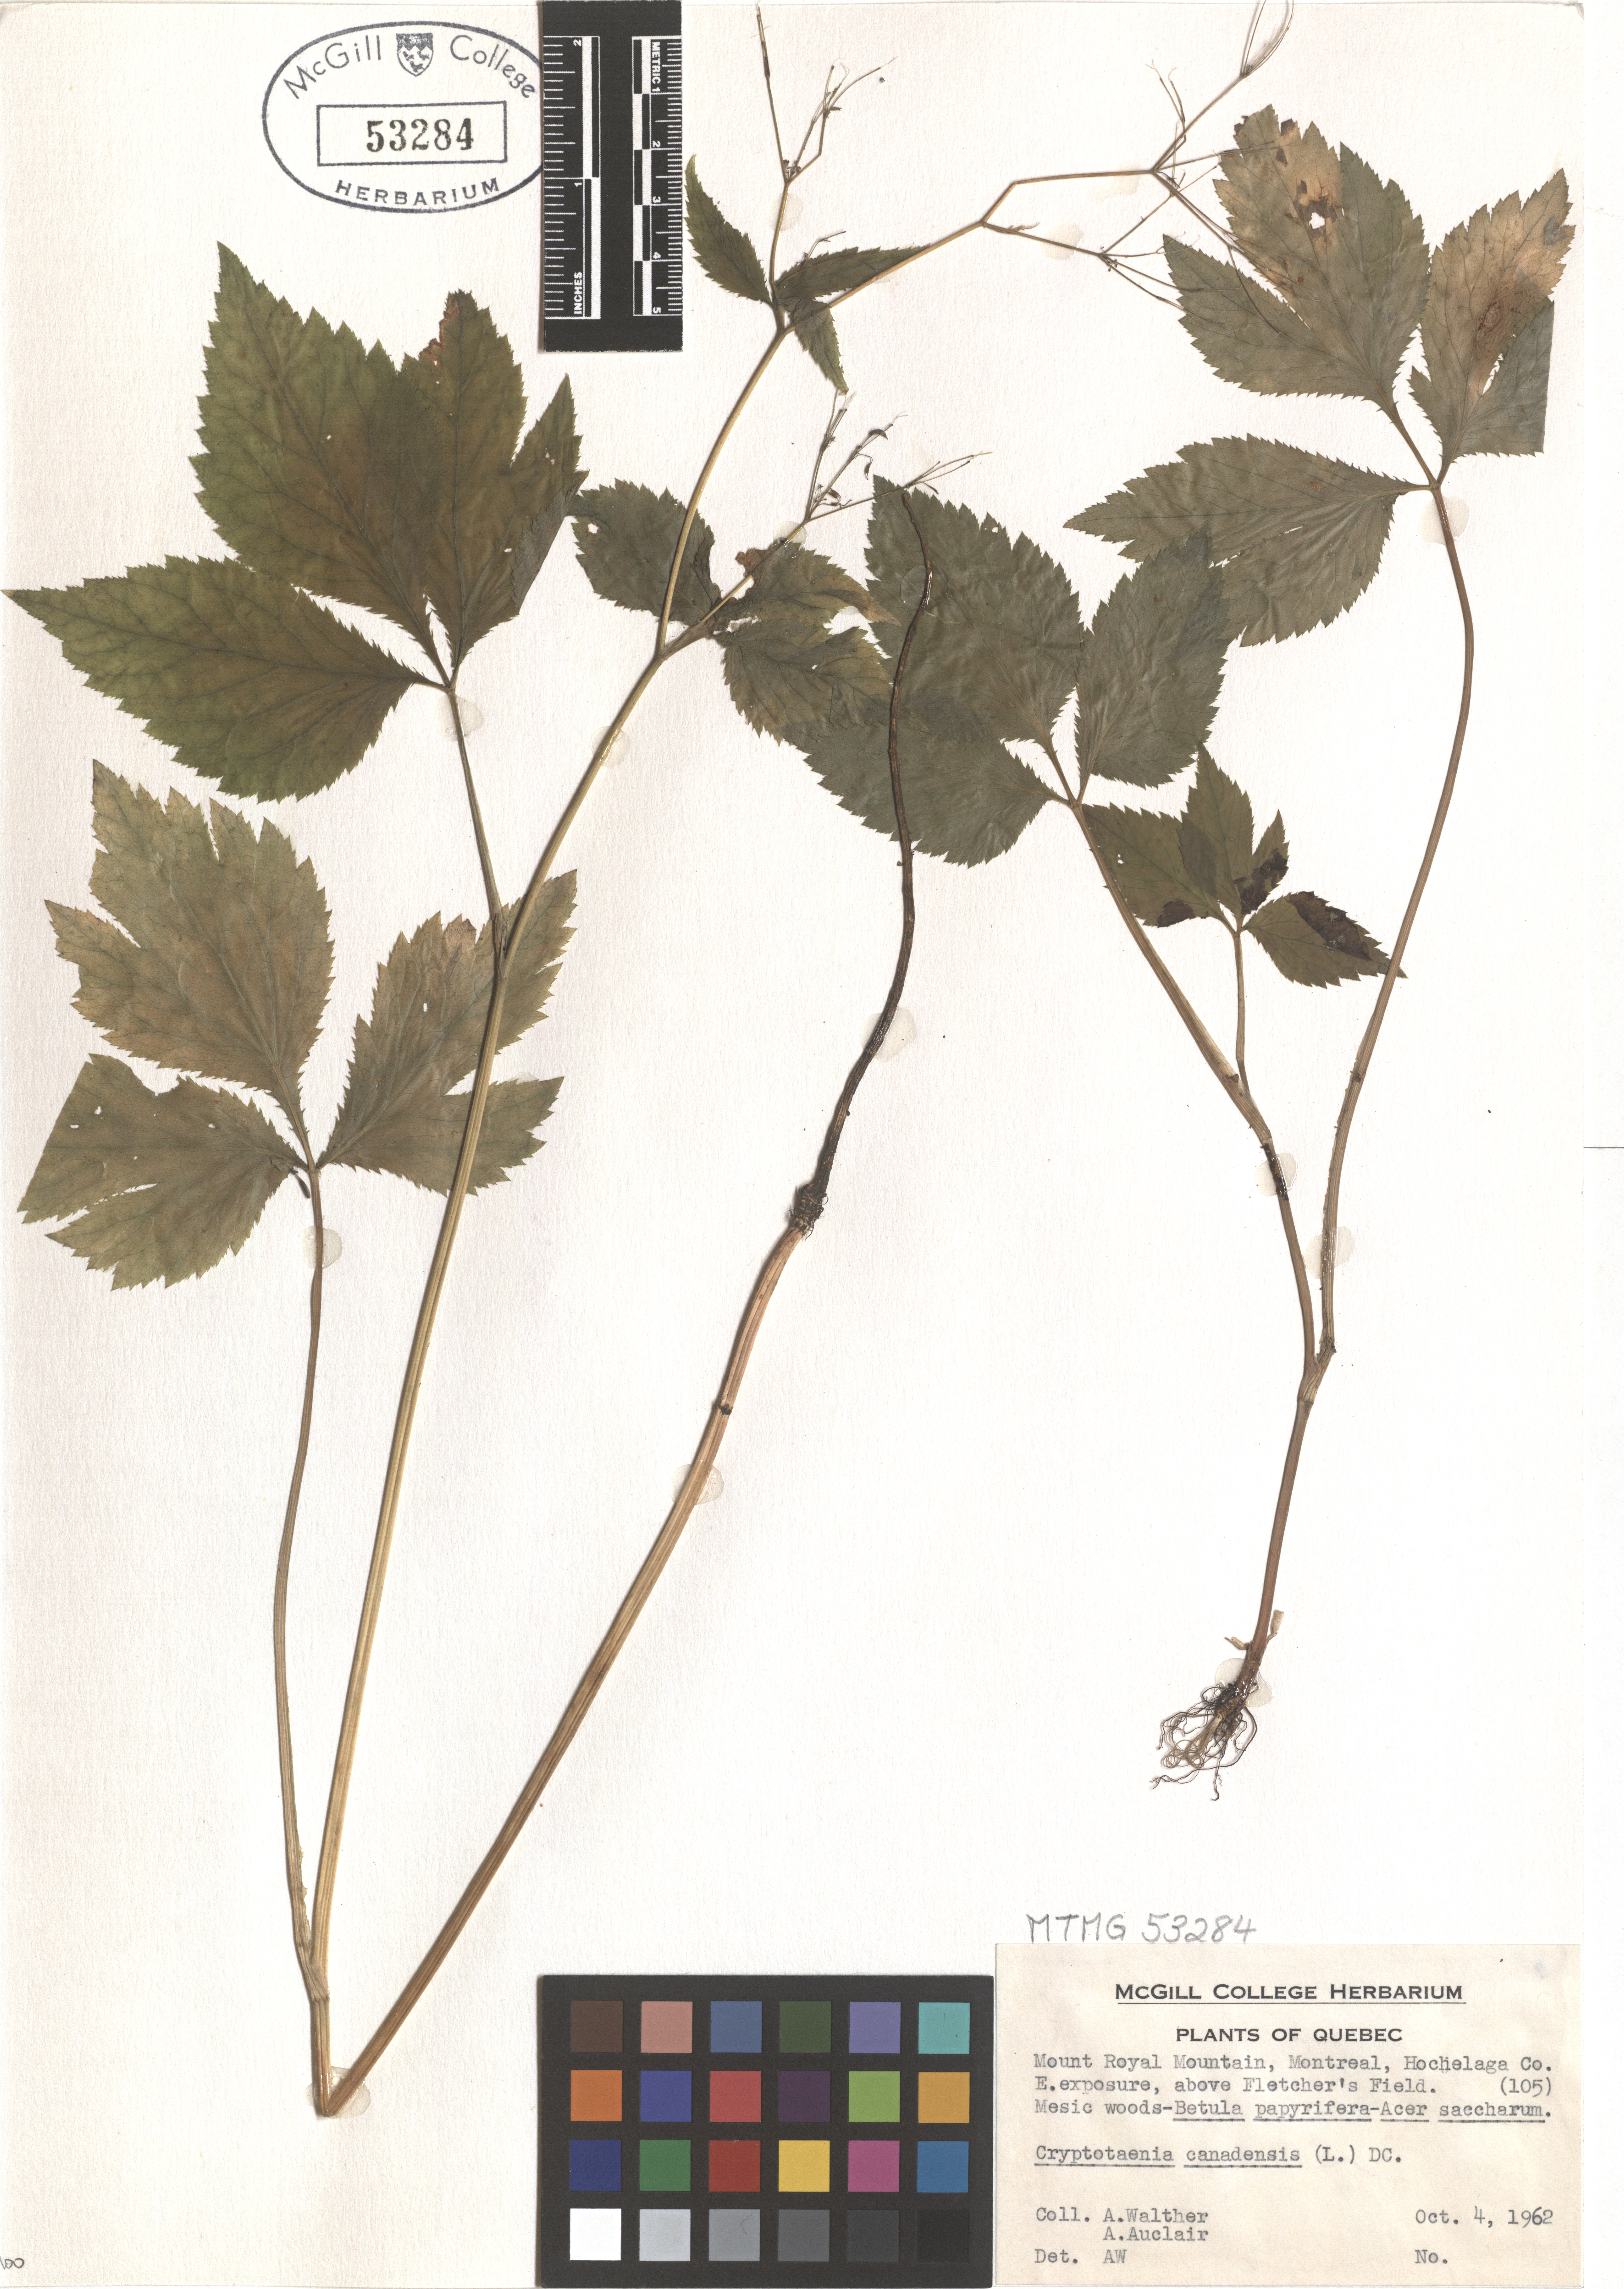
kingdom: Plantae
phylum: Tracheophyta
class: Magnoliopsida
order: Apiales
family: Apiaceae
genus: Cryptotaenia
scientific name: Cryptotaenia canadensis
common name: Honewort
